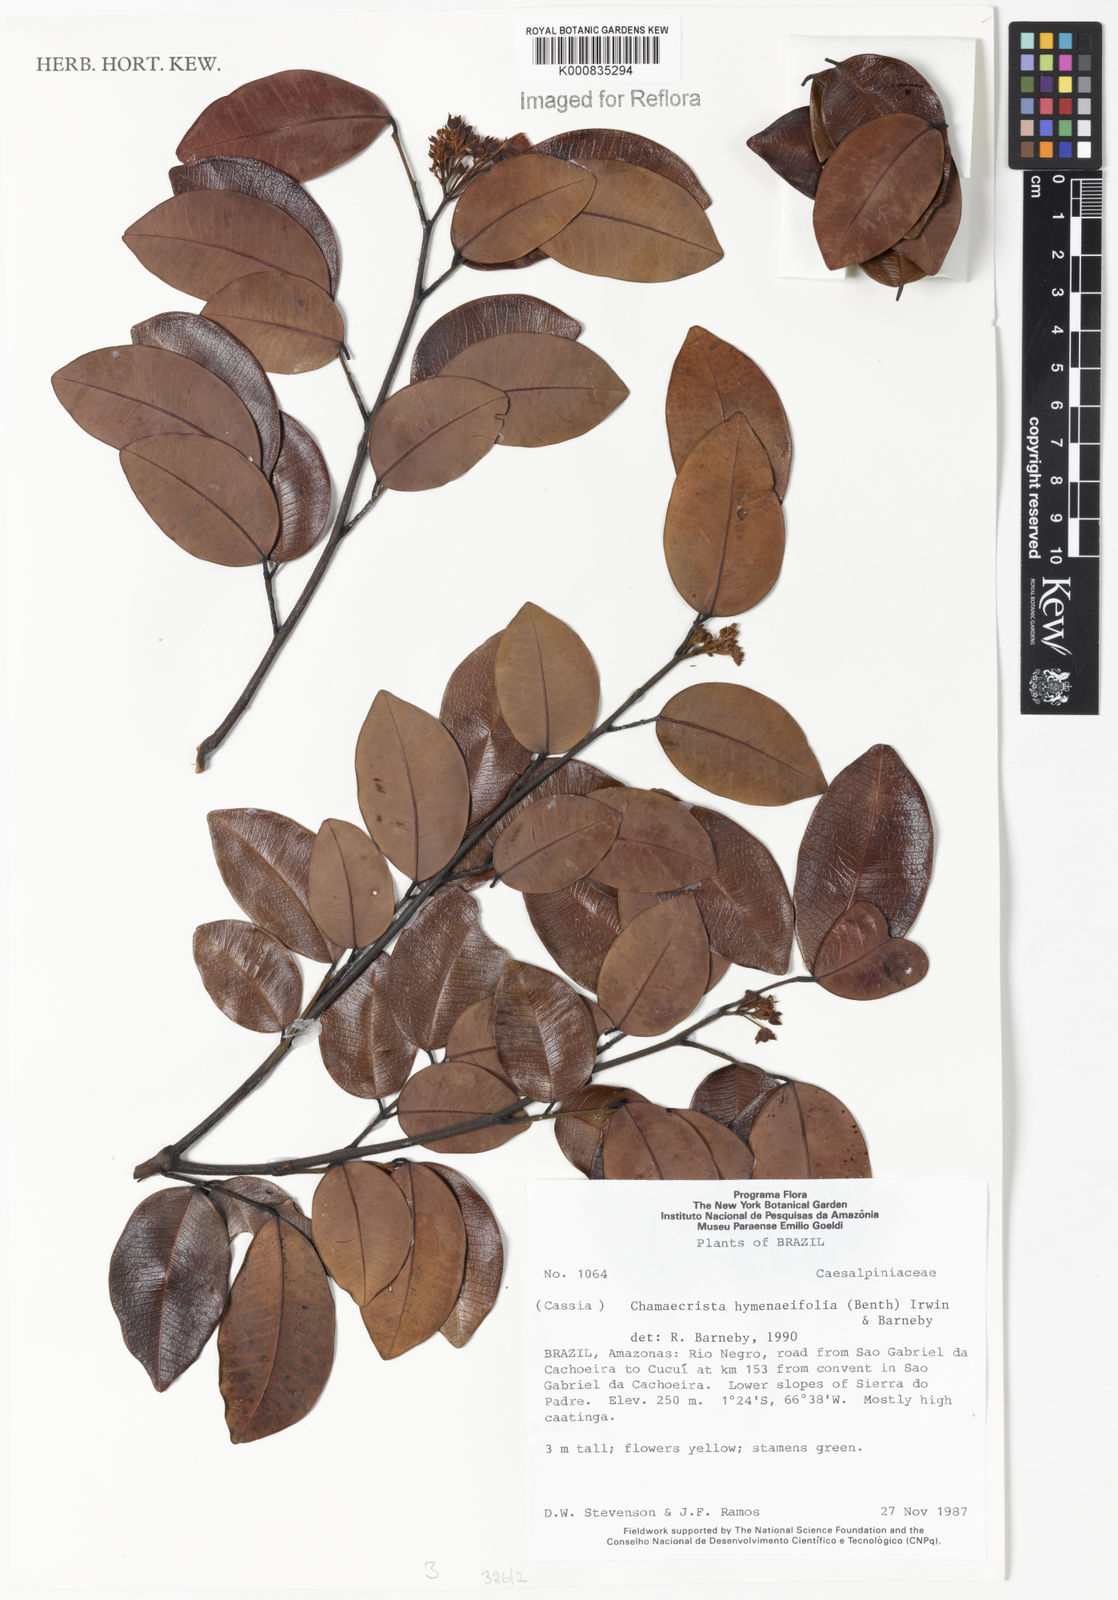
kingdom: Plantae
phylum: Tracheophyta
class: Magnoliopsida
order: Fabales
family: Fabaceae
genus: Chamaecrista
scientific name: Chamaecrista hymenaeifolia
